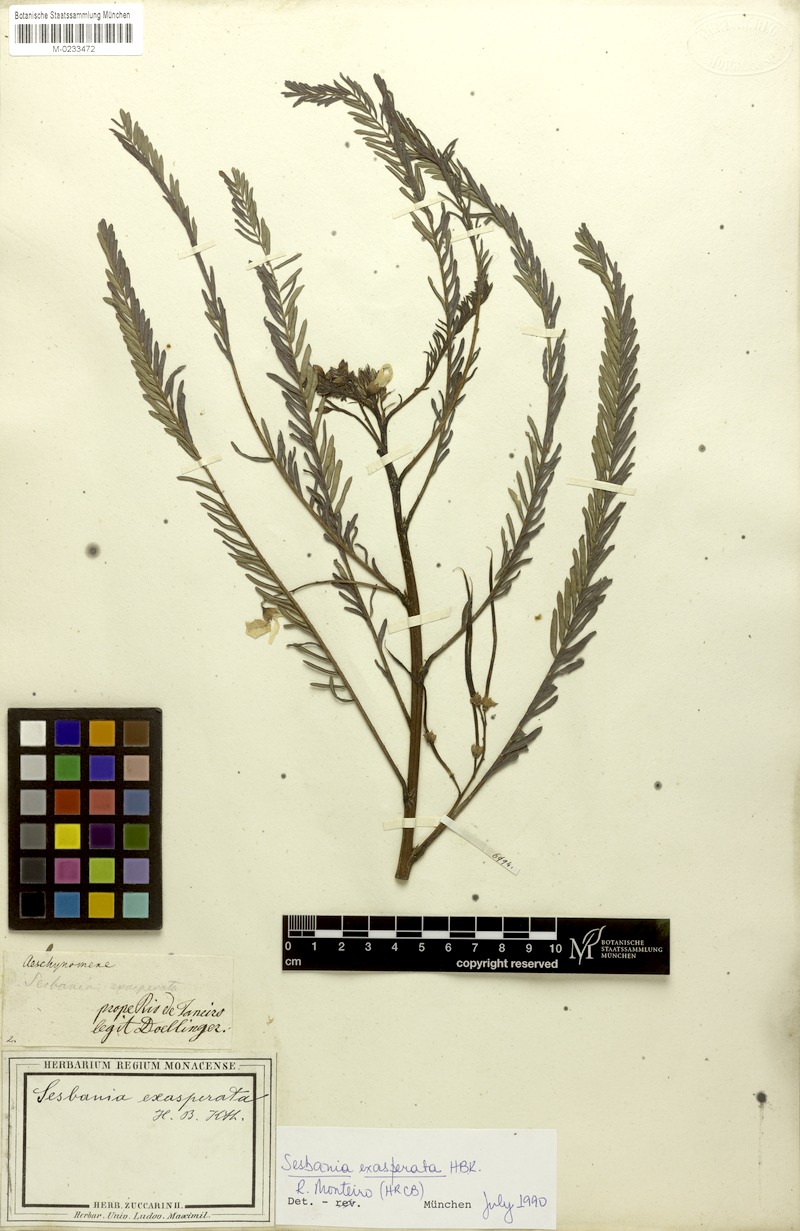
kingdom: Plantae
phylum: Tracheophyta
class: Magnoliopsida
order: Fabales
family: Fabaceae
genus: Sesbania
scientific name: Sesbania exasperata
